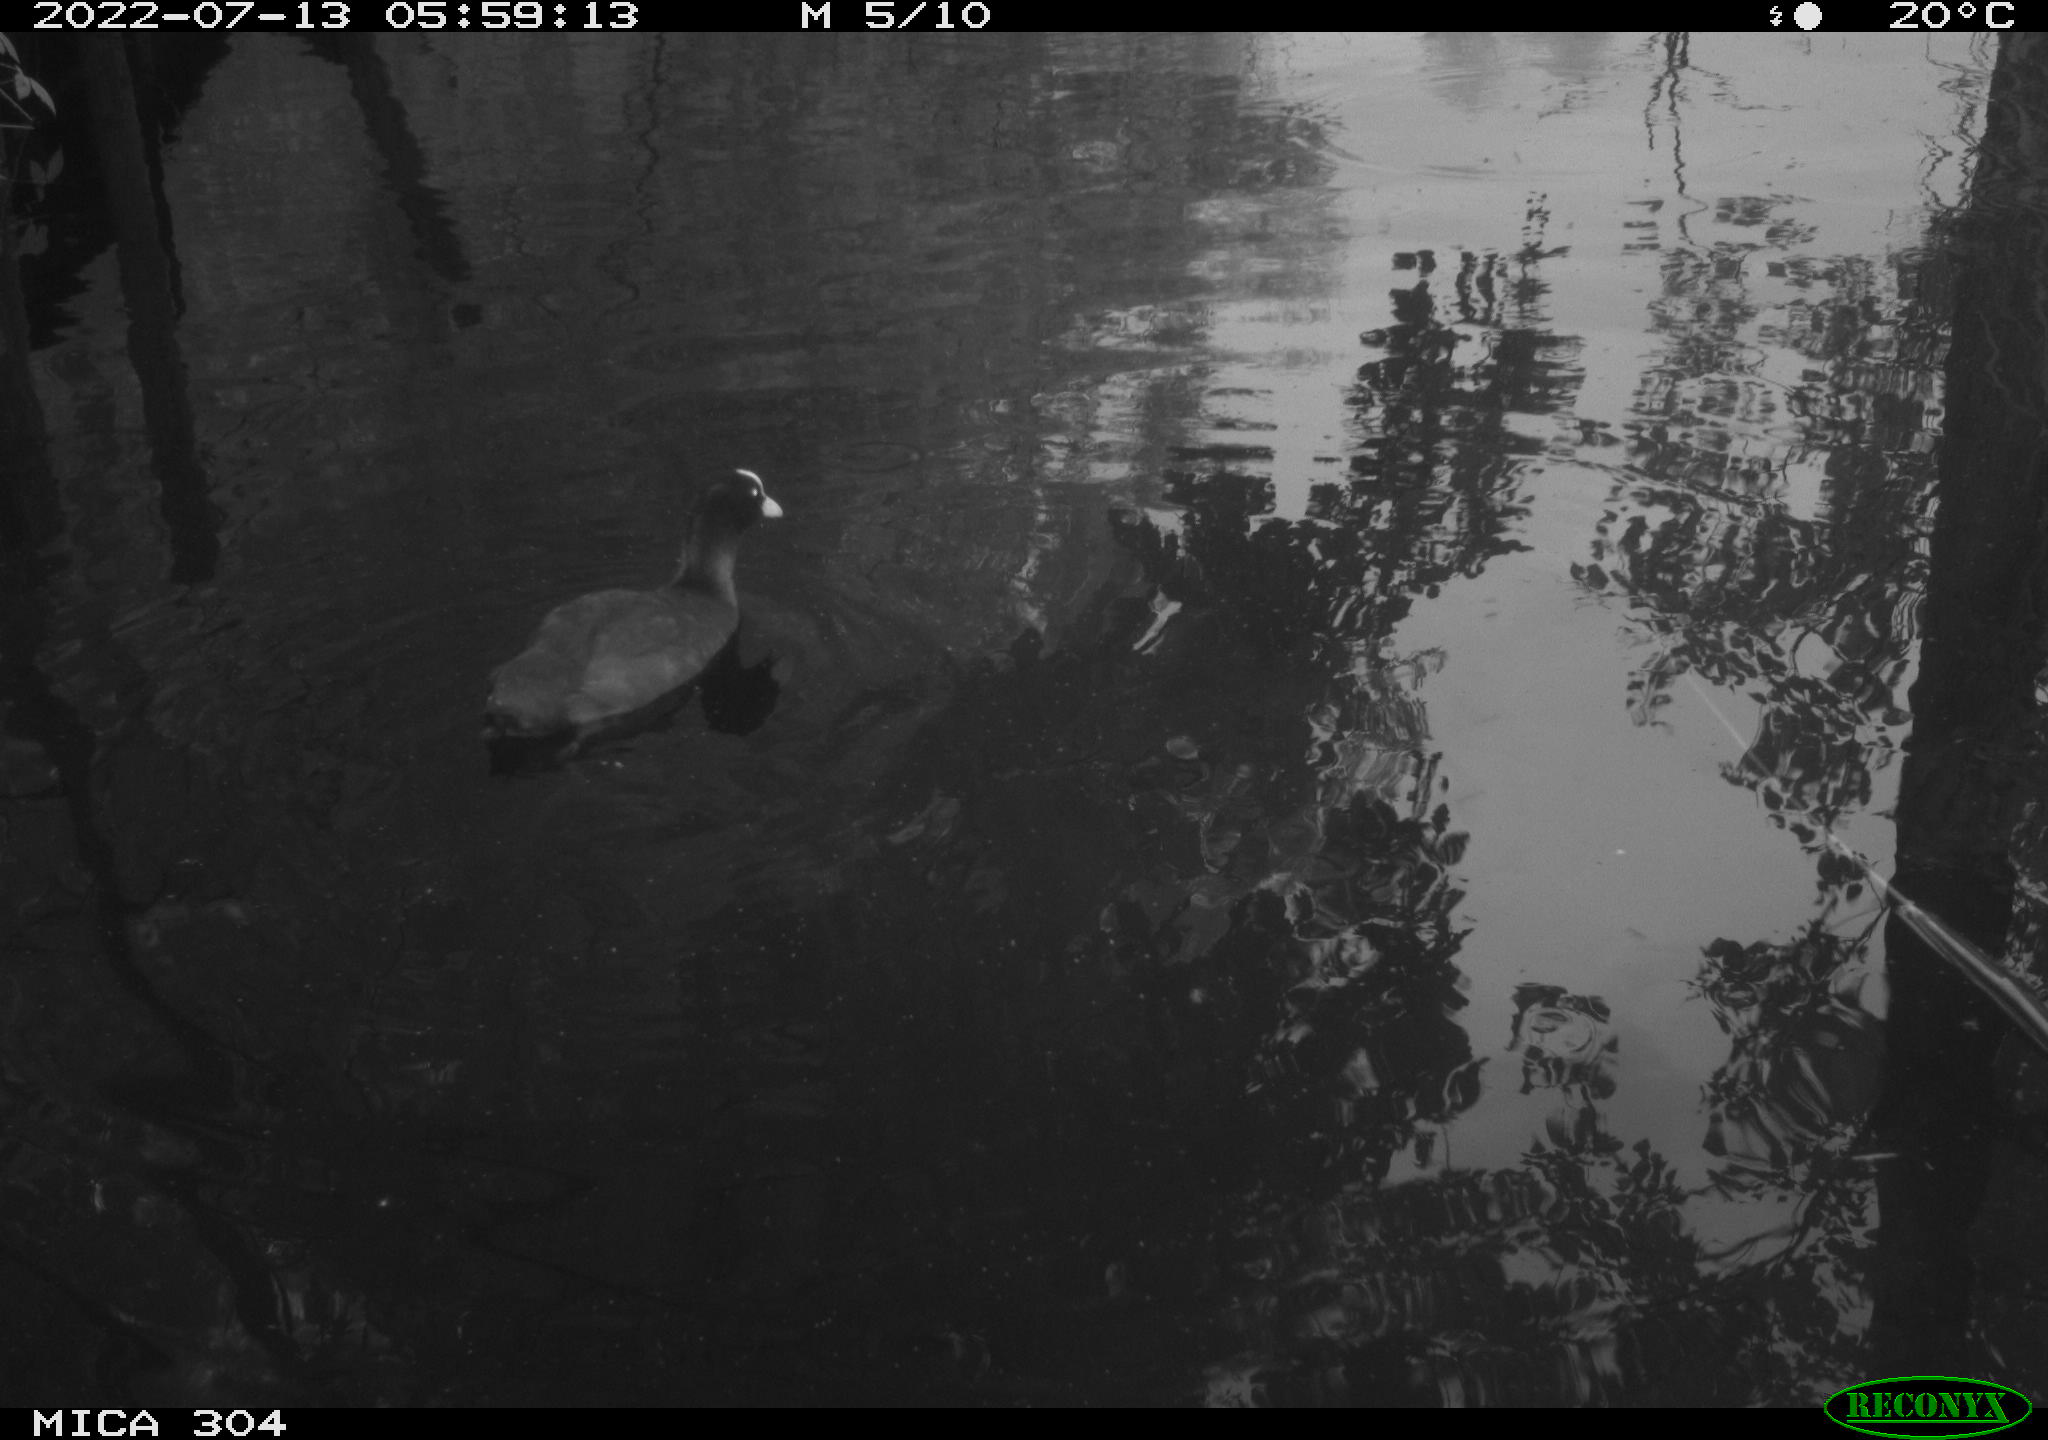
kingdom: Animalia
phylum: Chordata
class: Aves
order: Gruiformes
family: Rallidae
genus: Fulica
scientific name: Fulica atra
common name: Eurasian coot
